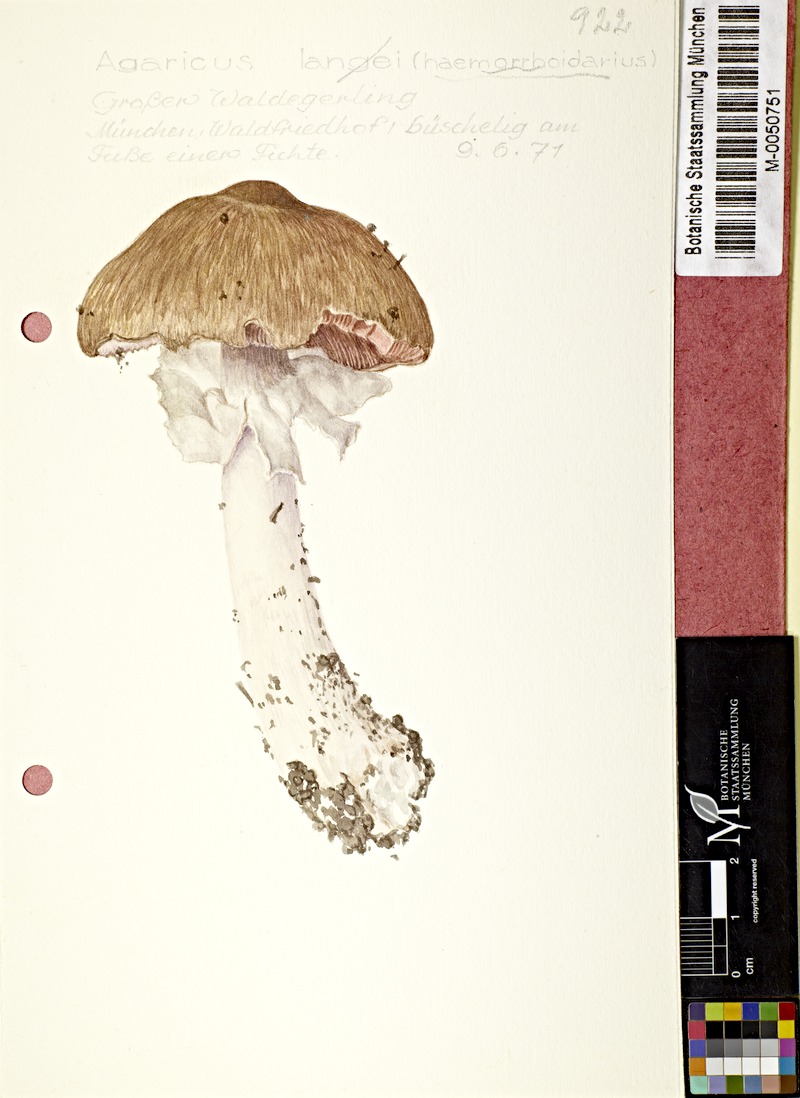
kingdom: Fungi
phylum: Basidiomycota
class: Agaricomycetes
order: Agaricales
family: Agaricaceae
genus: Agaricus
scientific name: Agaricus langei
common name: Scaly wood mushroom
